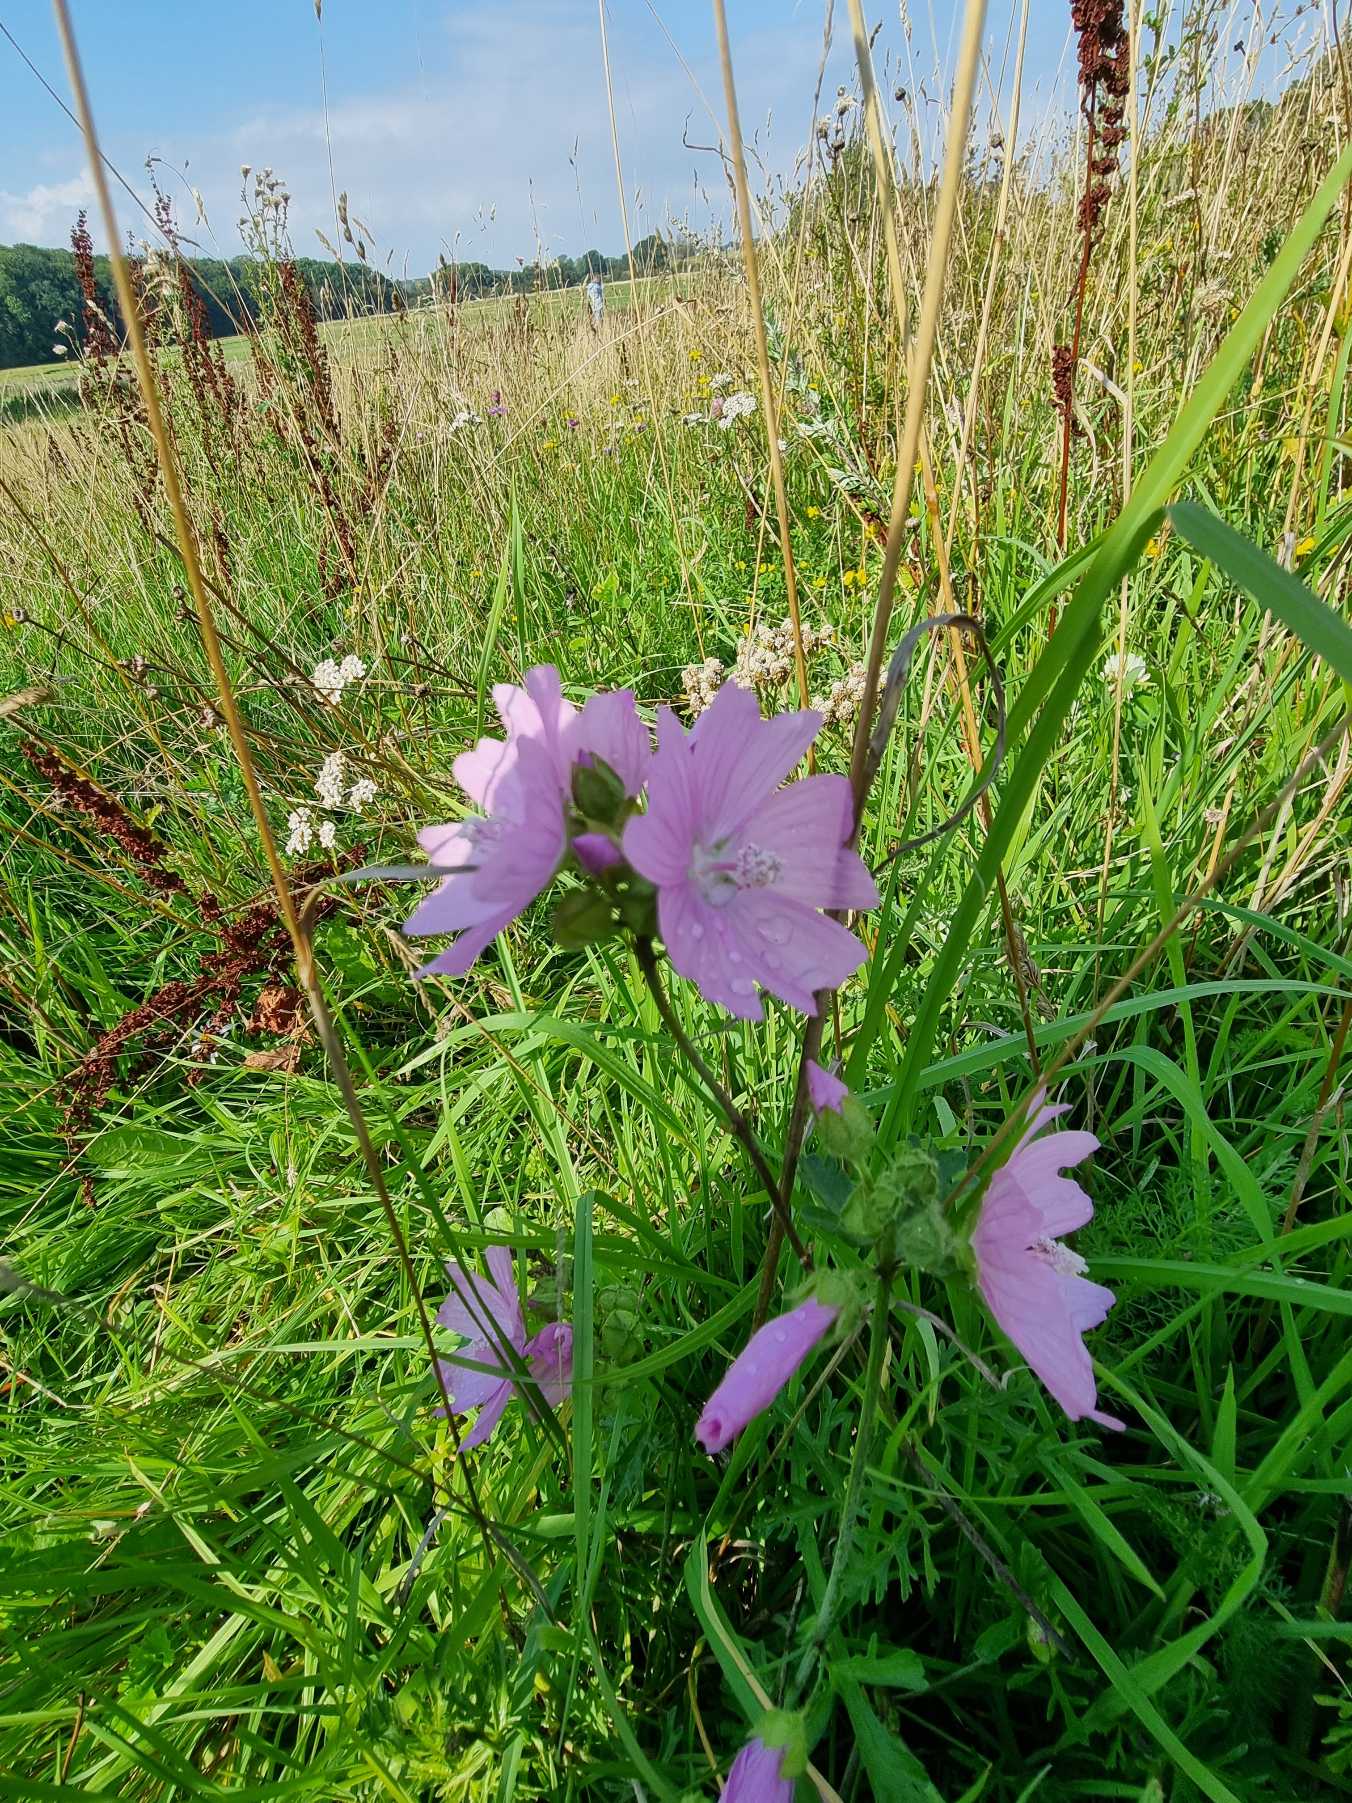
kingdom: Plantae
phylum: Tracheophyta
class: Magnoliopsida
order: Malvales
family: Malvaceae
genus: Malva
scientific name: Malva
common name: Katostslægten
